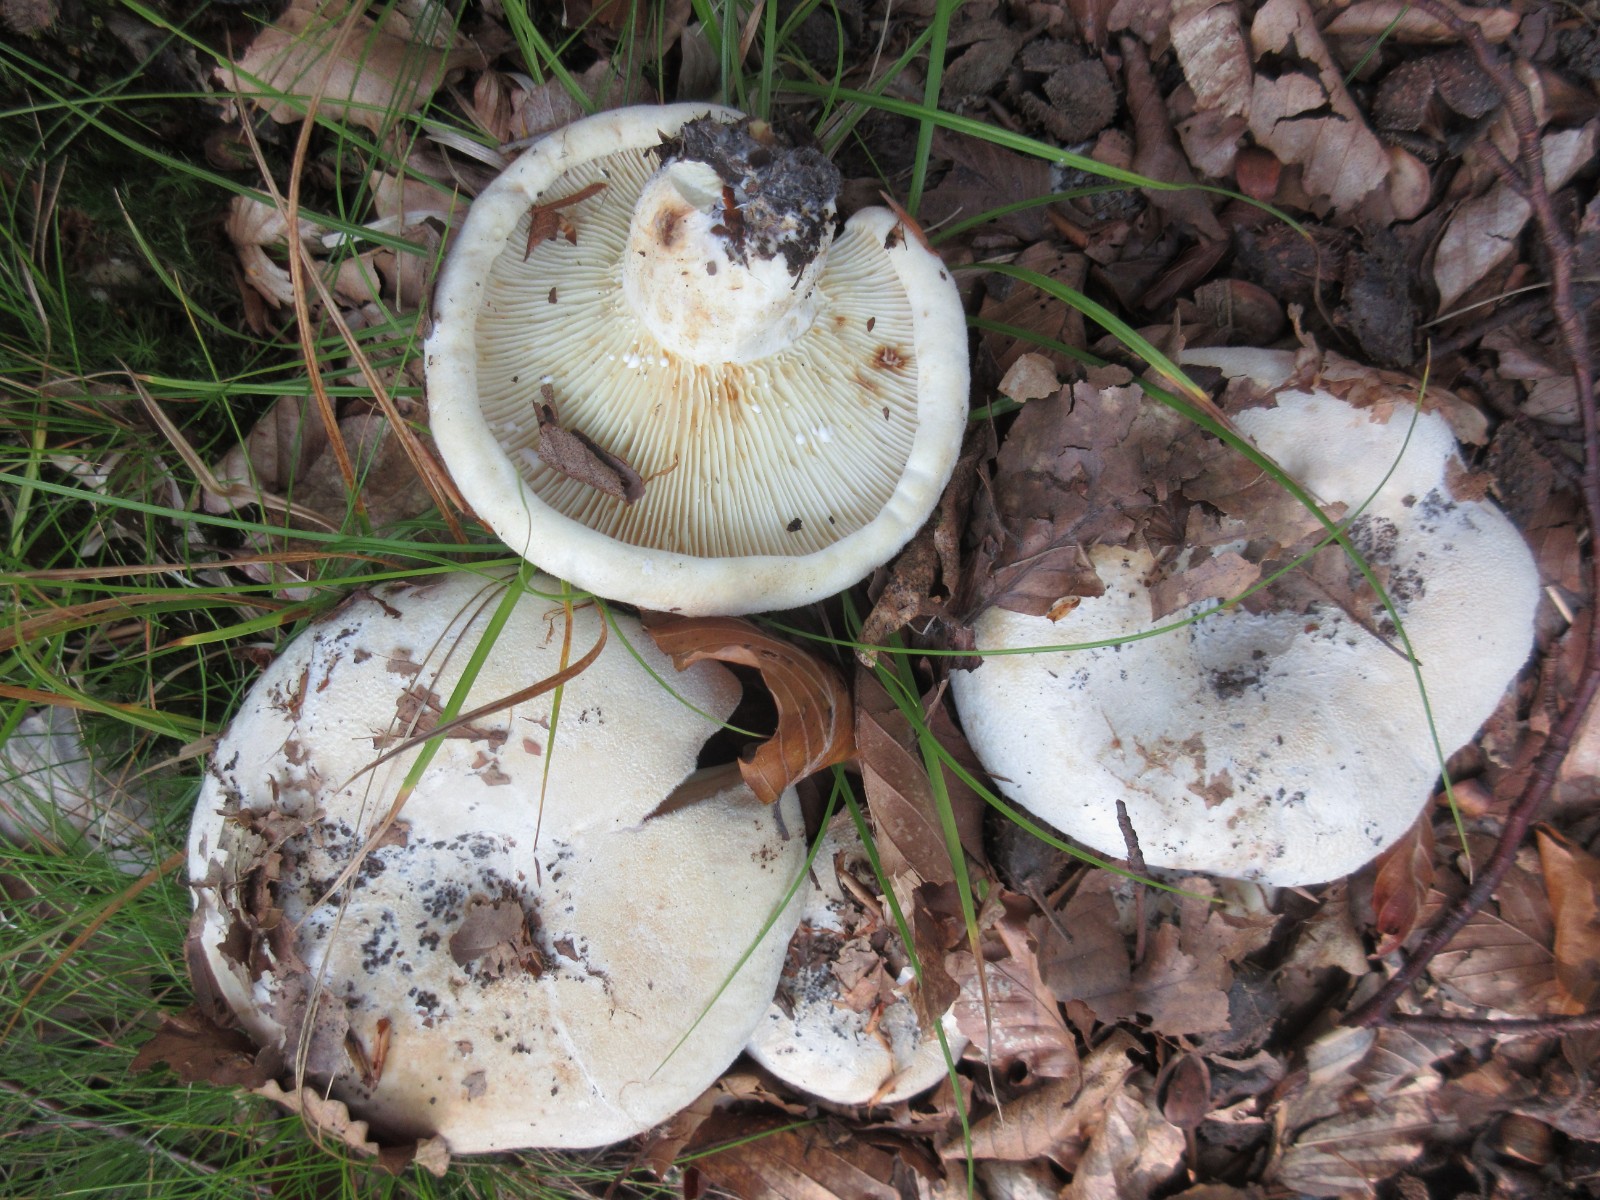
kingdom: Fungi
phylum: Basidiomycota
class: Agaricomycetes
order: Russulales
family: Russulaceae
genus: Lactifluus
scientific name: Lactifluus bertillonii
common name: blødfiltet mælkehat
